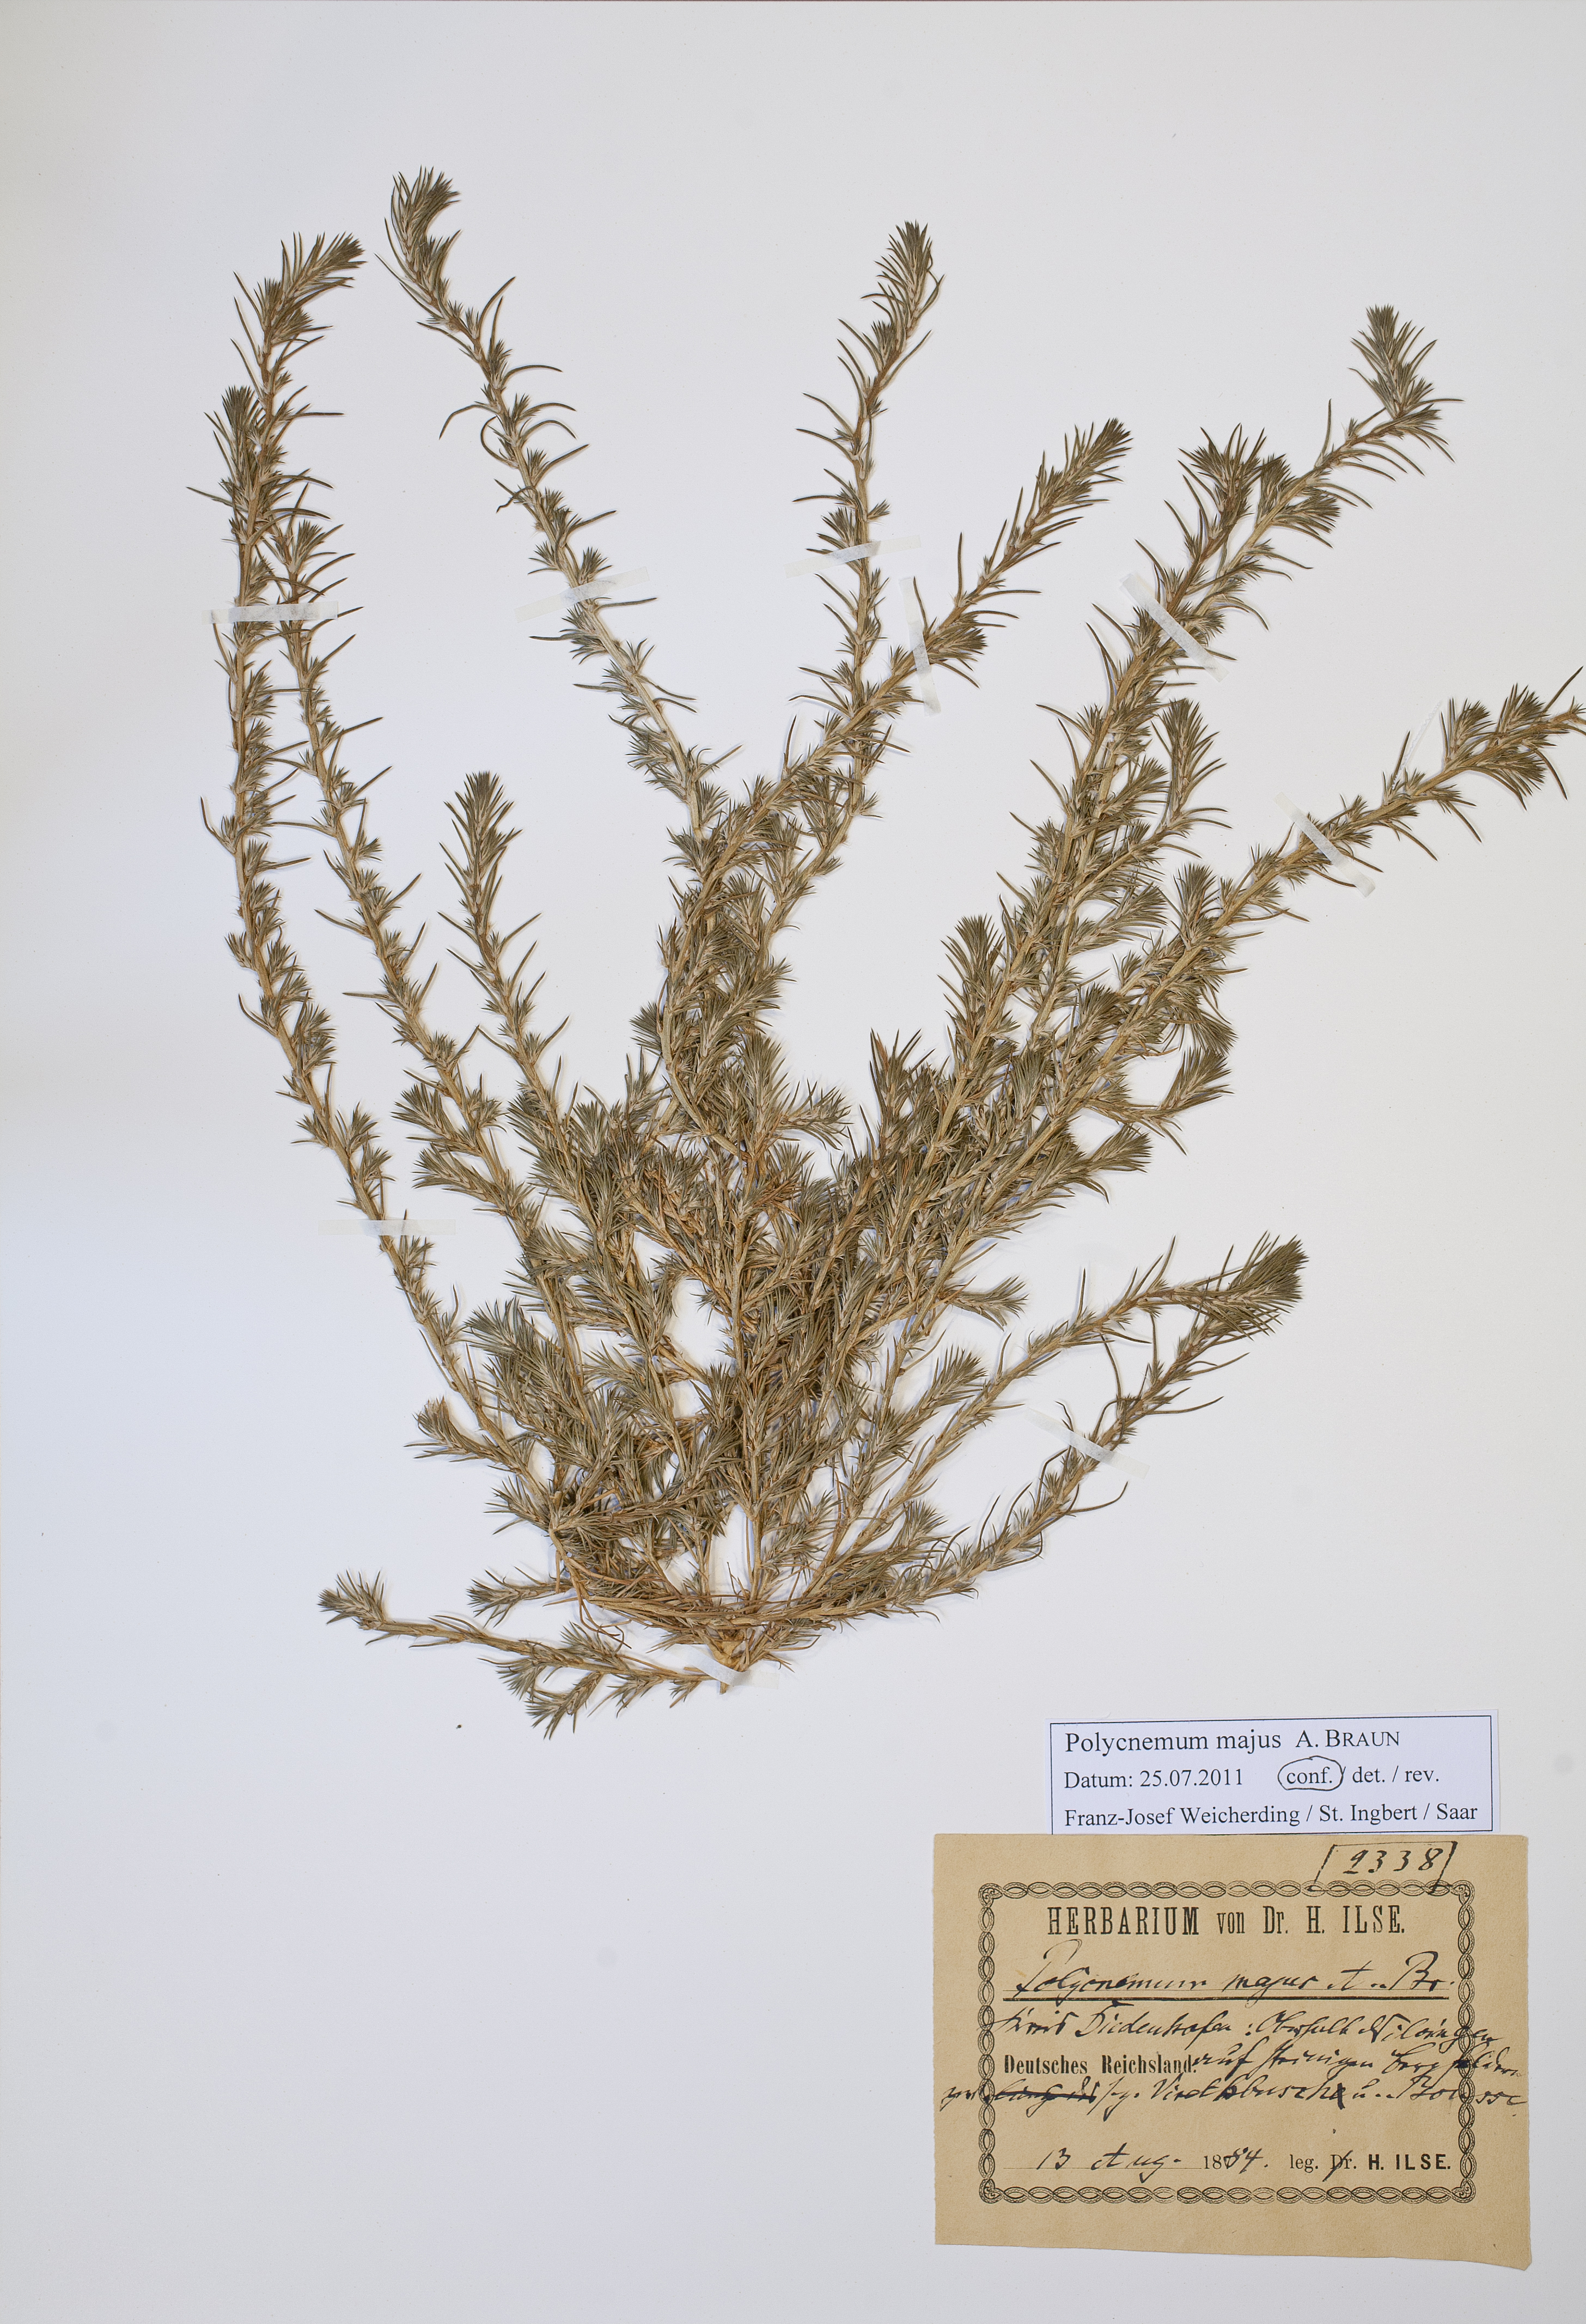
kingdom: Plantae
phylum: Tracheophyta
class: Magnoliopsida
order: Caryophyllales
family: Amaranthaceae
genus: Polycnemum
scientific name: Polycnemum majus
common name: Giant needleleaf
